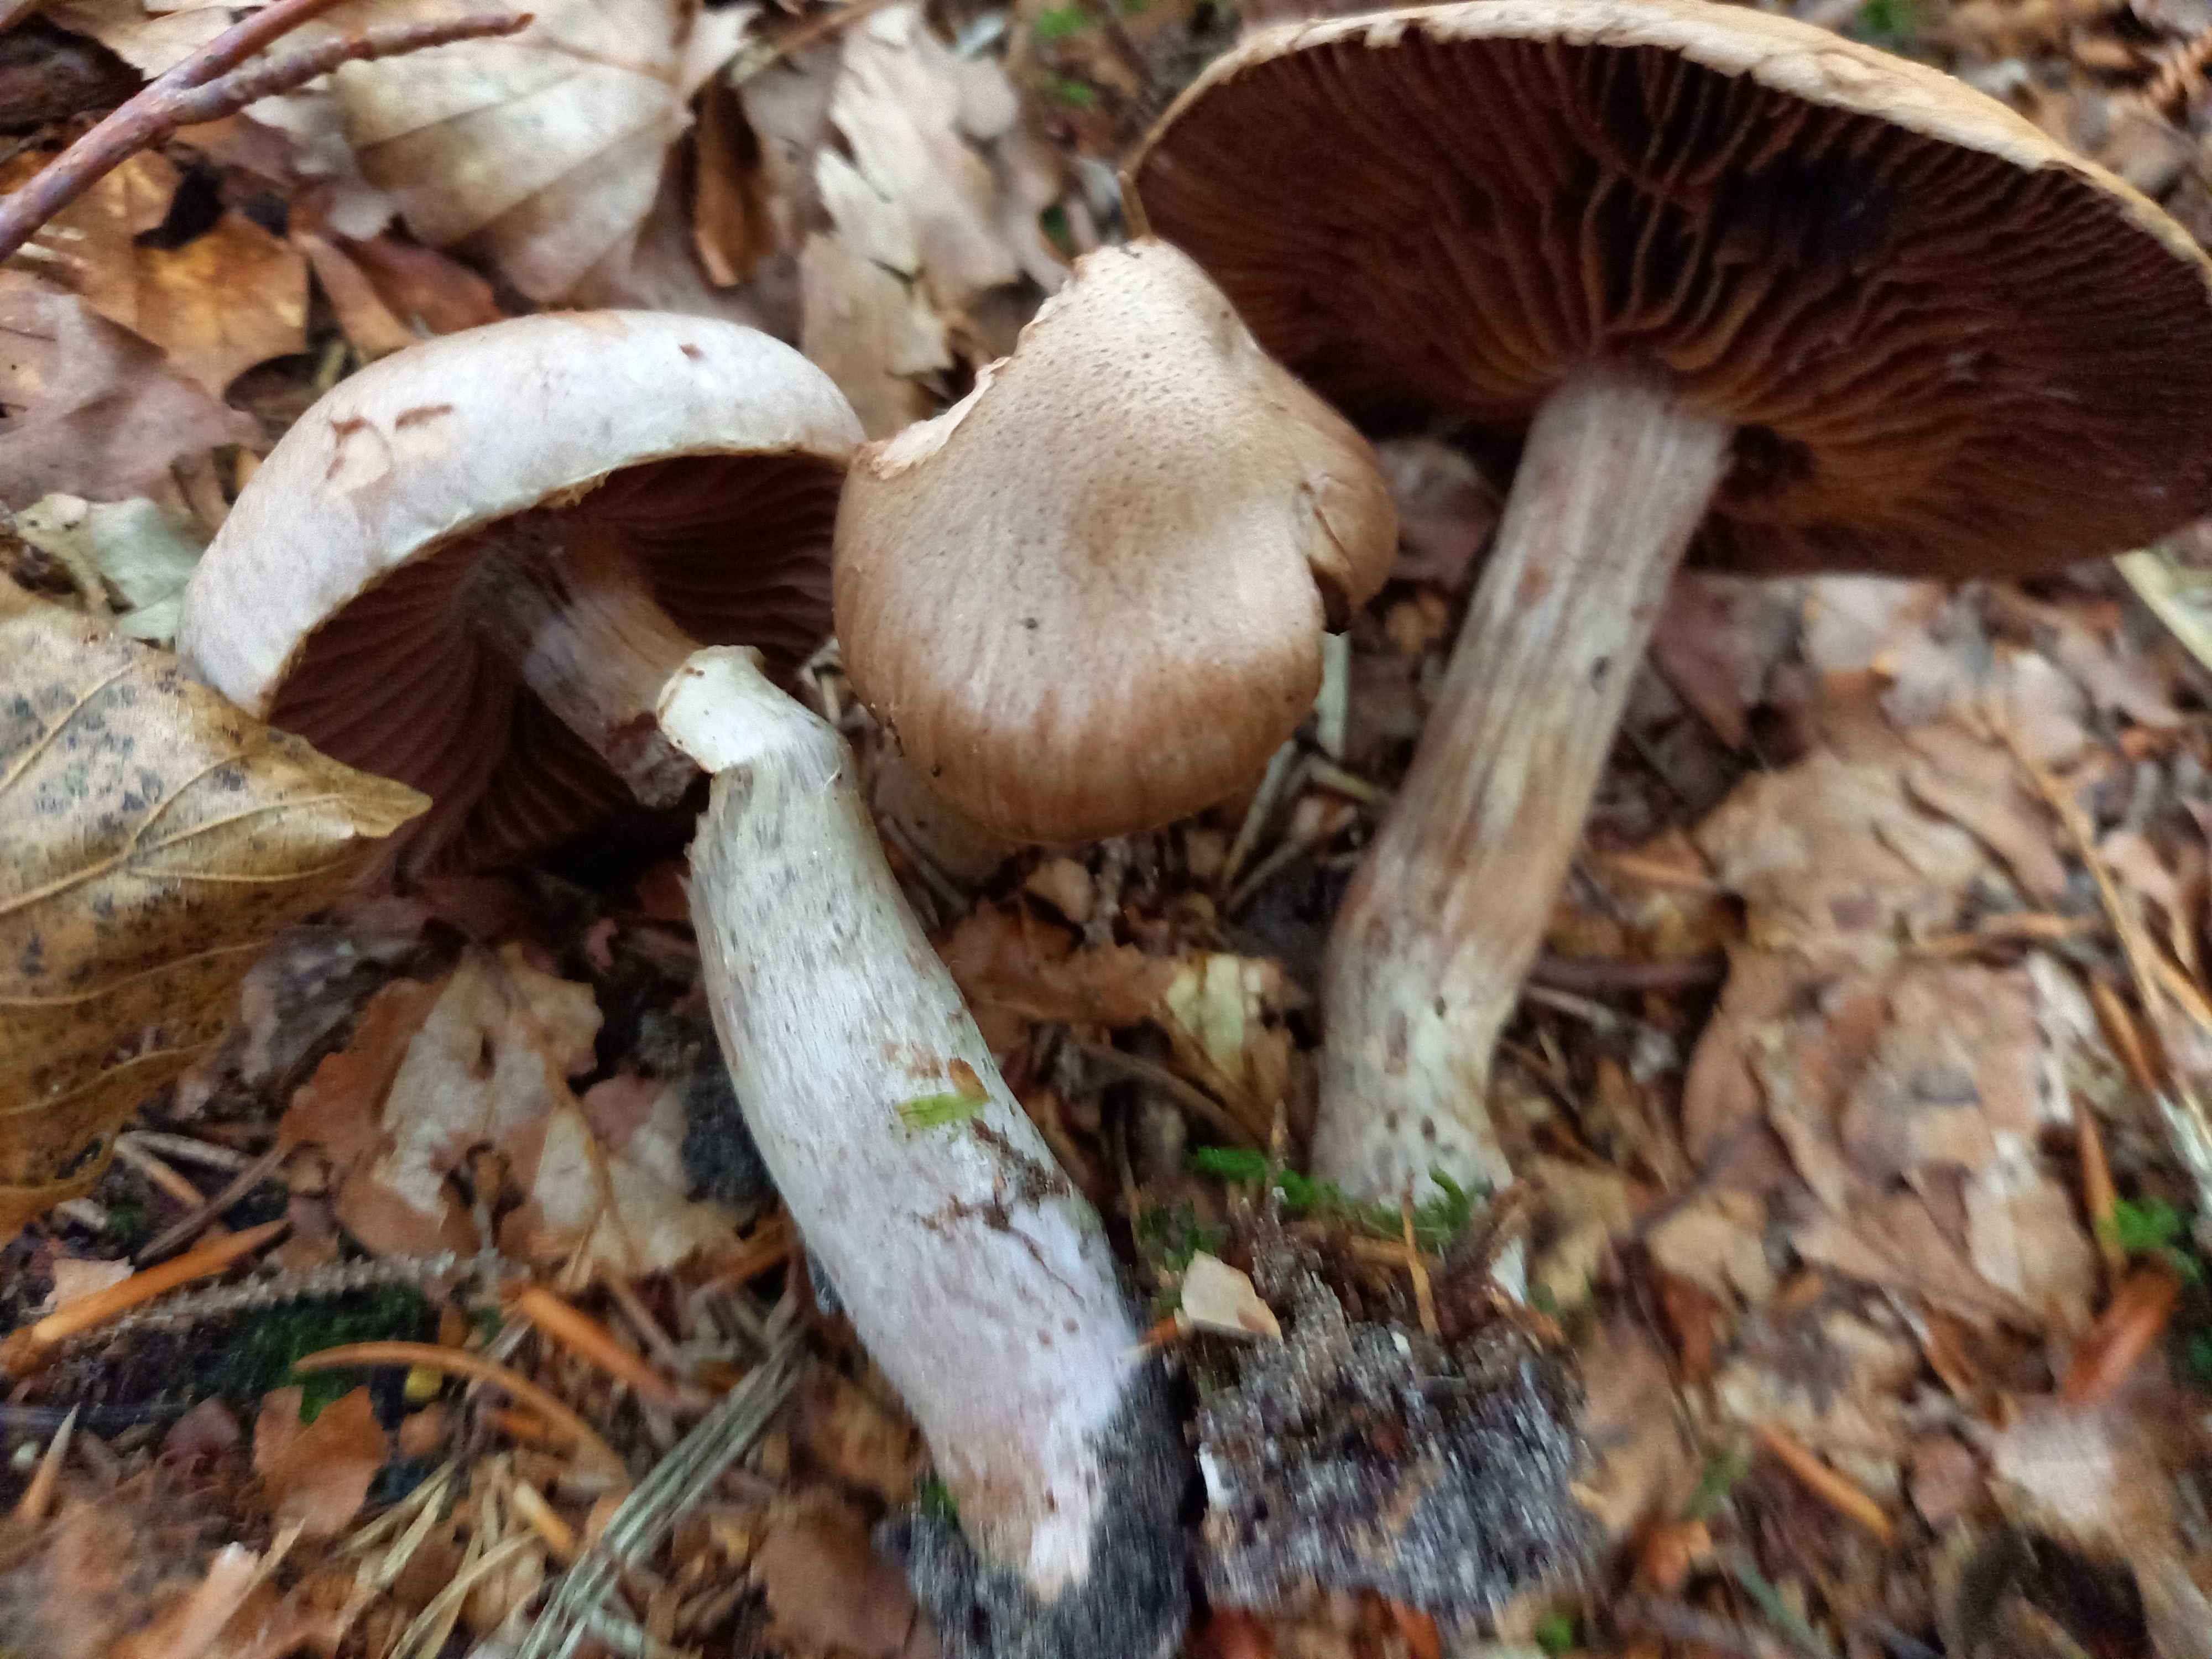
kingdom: Fungi
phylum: Basidiomycota
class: Agaricomycetes
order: Agaricales
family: Cortinariaceae
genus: Cortinarius
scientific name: Cortinarius torvus
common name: champignonagtig slørhat
